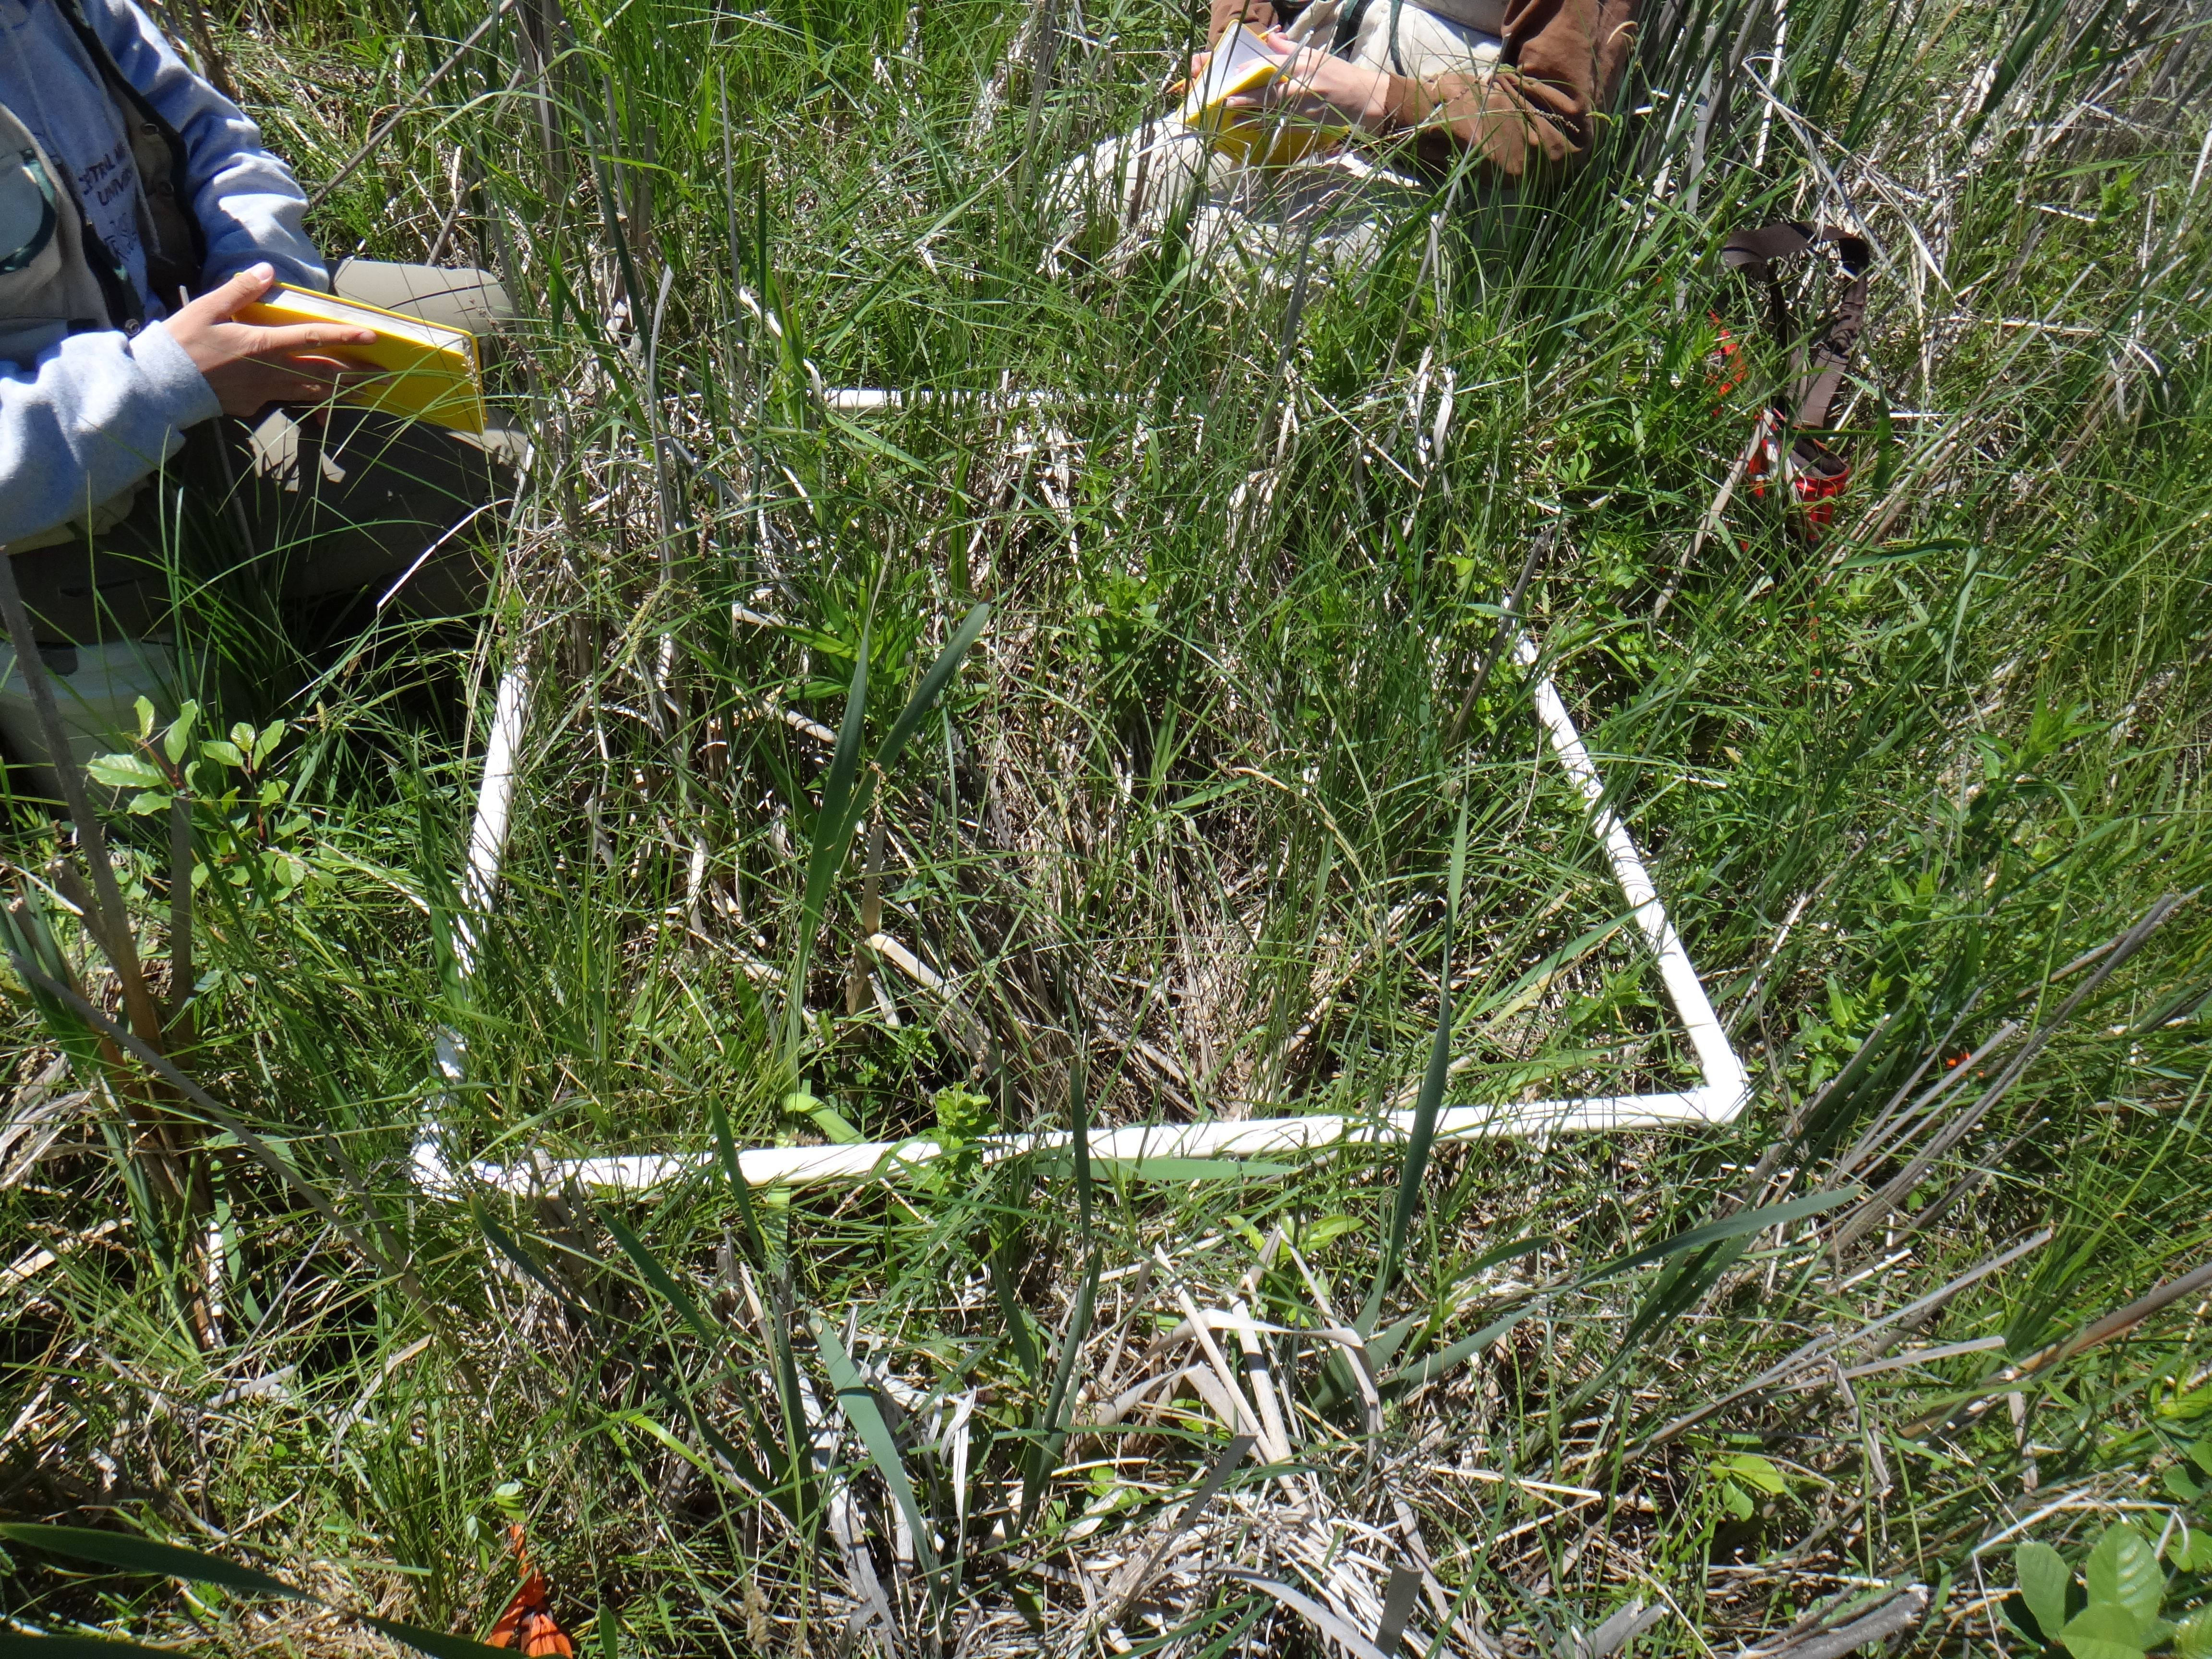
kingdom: Plantae
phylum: Tracheophyta
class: Liliopsida
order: Poales
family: Poaceae
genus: Phalaris
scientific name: Phalaris arundinacea
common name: Reed canary-grass
